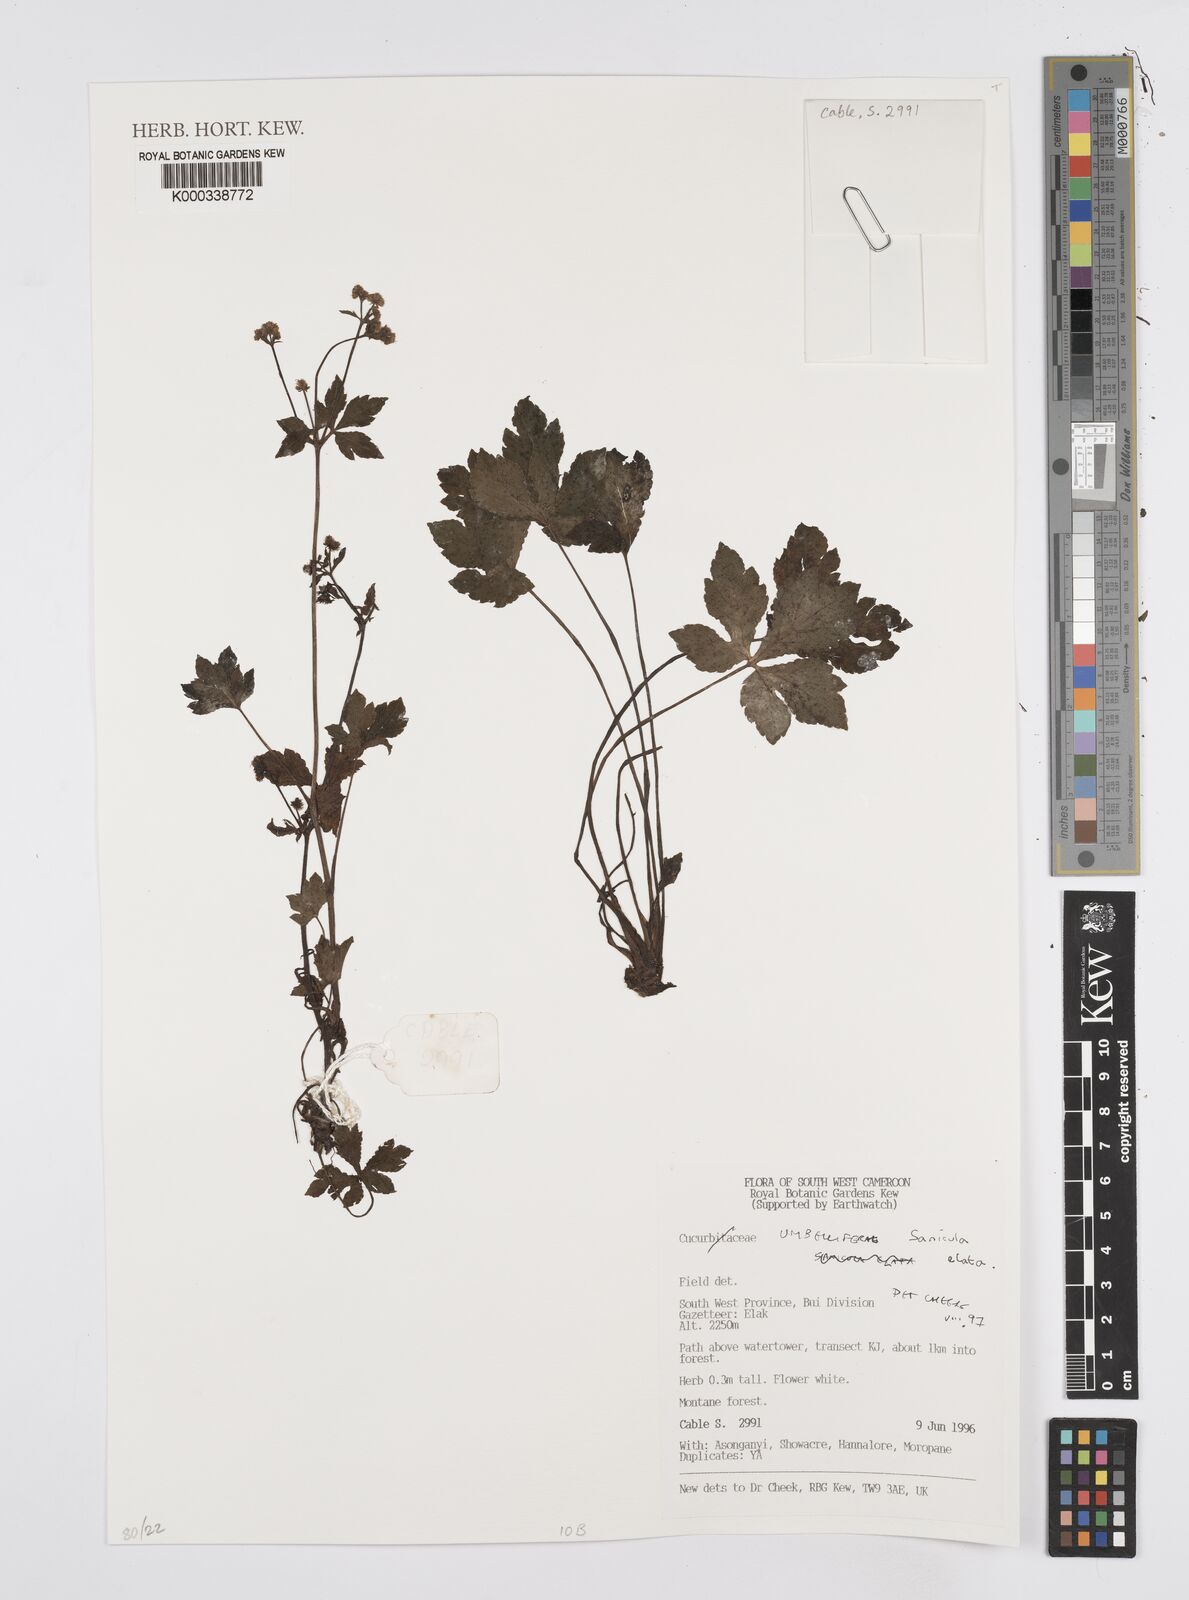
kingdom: Plantae
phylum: Tracheophyta
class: Magnoliopsida
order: Apiales
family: Apiaceae
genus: Sanicula
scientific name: Sanicula
